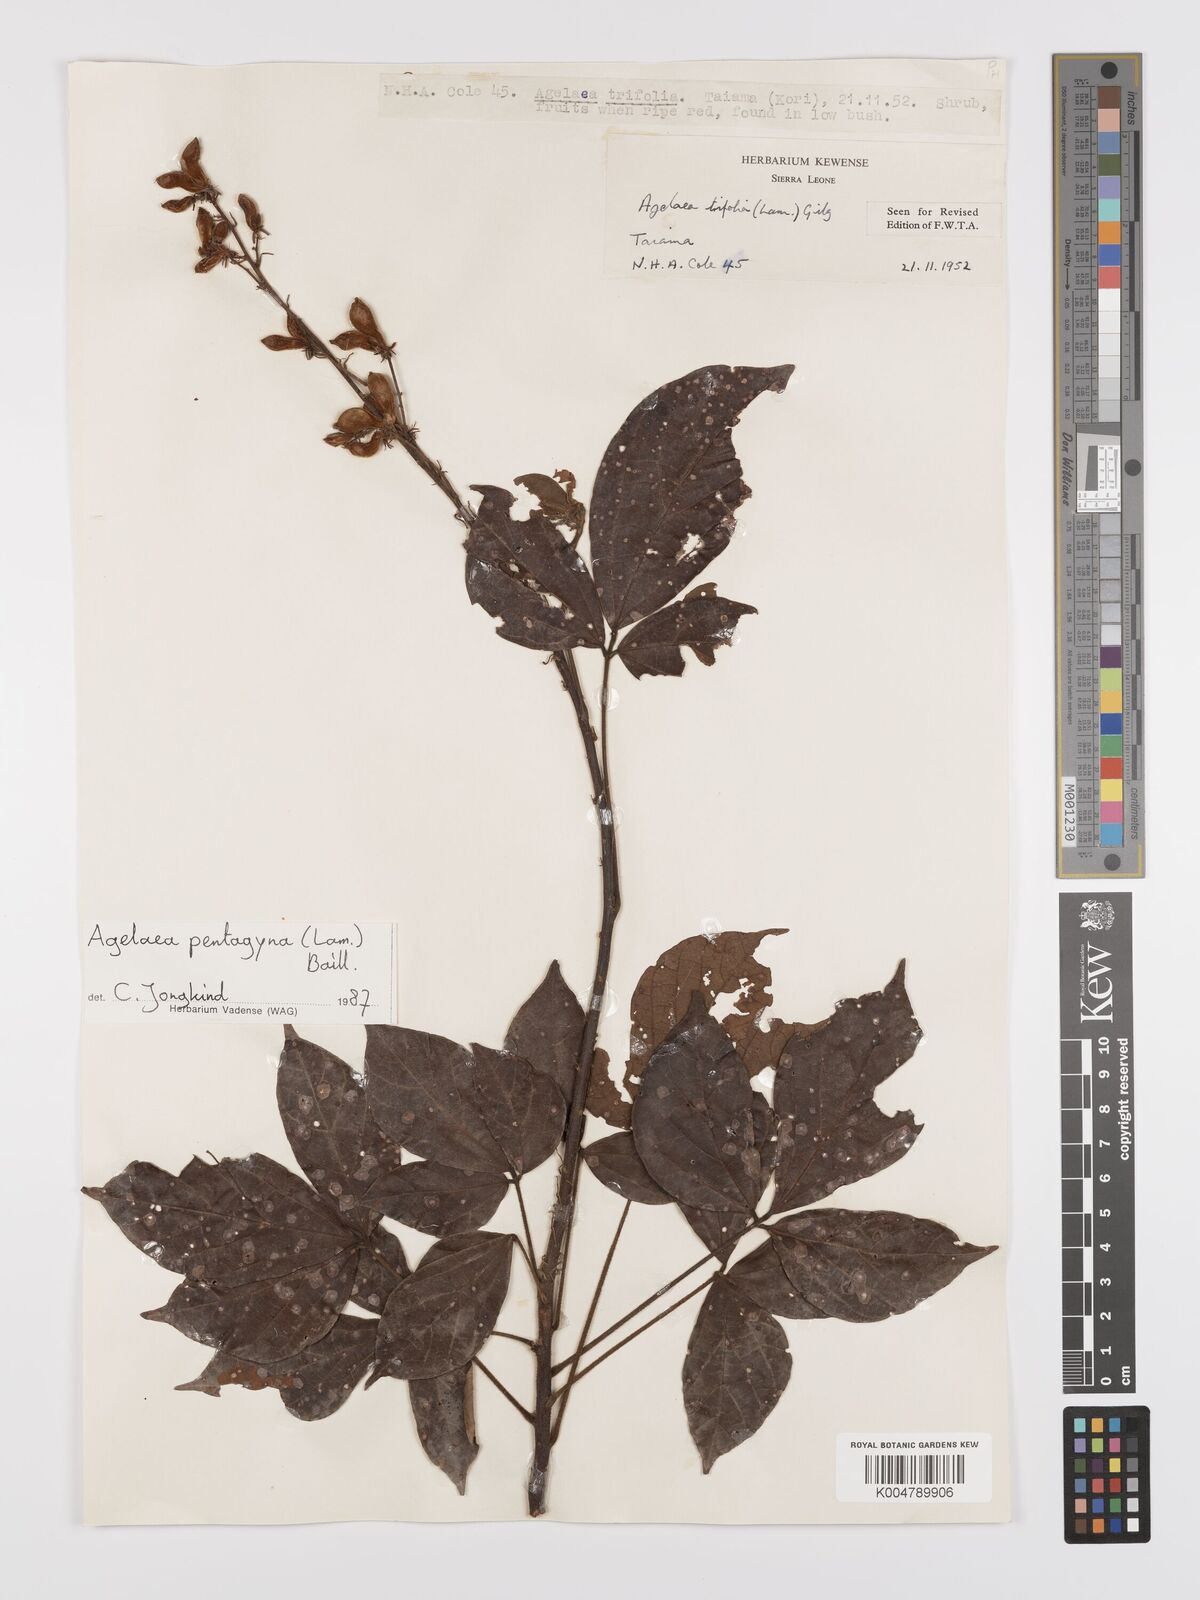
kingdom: Plantae
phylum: Tracheophyta
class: Magnoliopsida
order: Oxalidales
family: Connaraceae
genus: Agelaea
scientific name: Agelaea pentagyna
